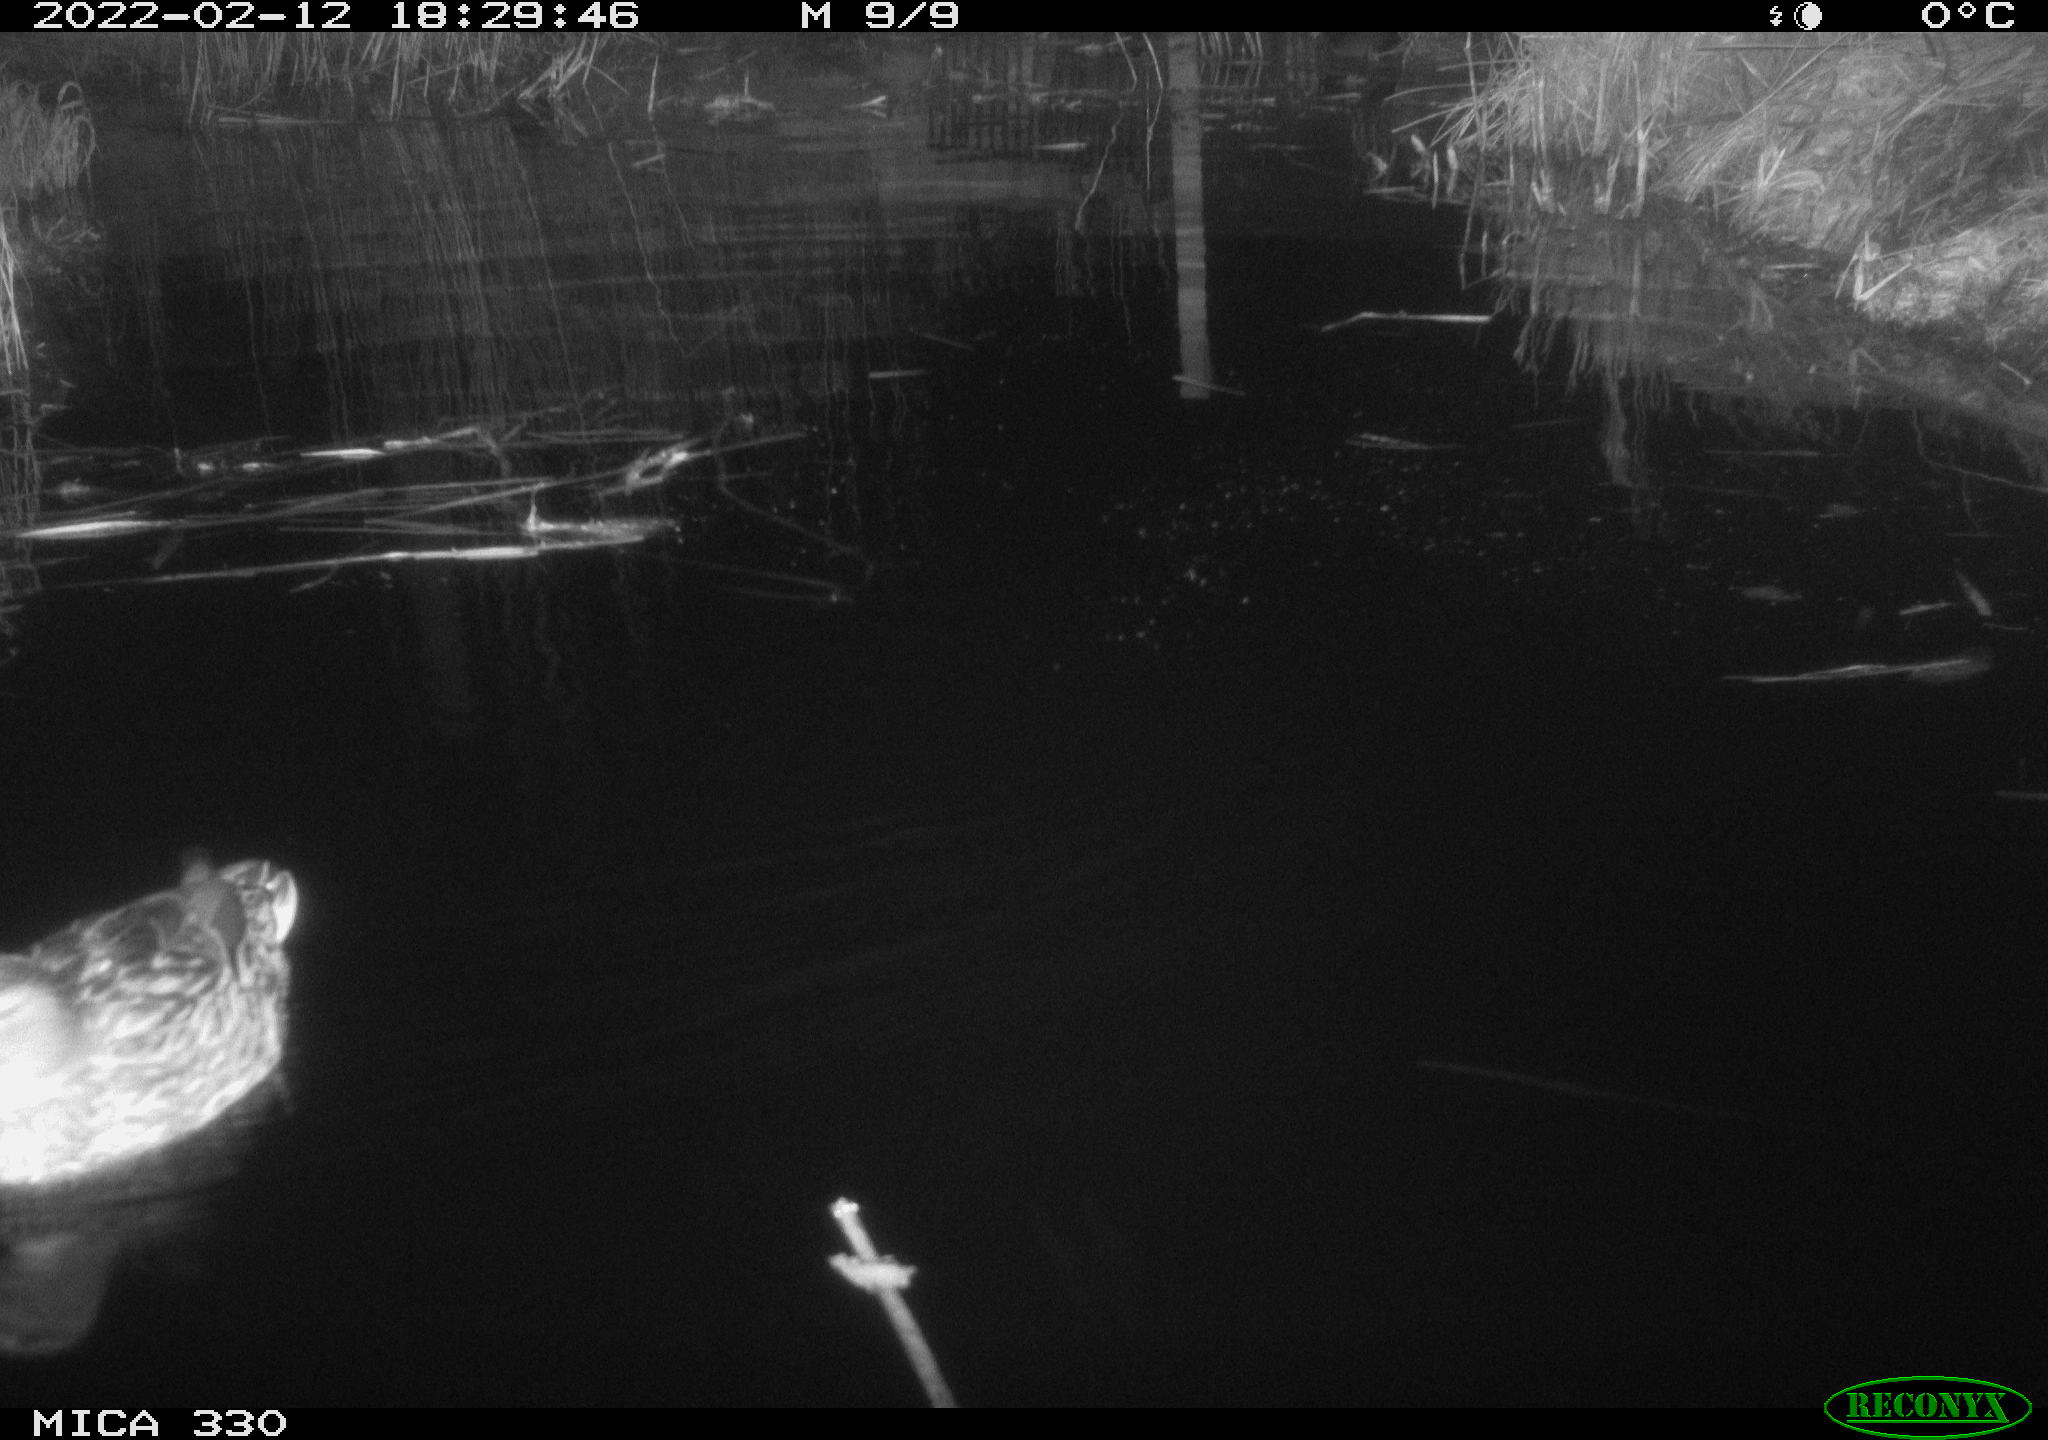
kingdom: Animalia
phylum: Chordata
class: Aves
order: Anseriformes
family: Anatidae
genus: Anas
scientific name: Anas platyrhynchos
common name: Mallard
